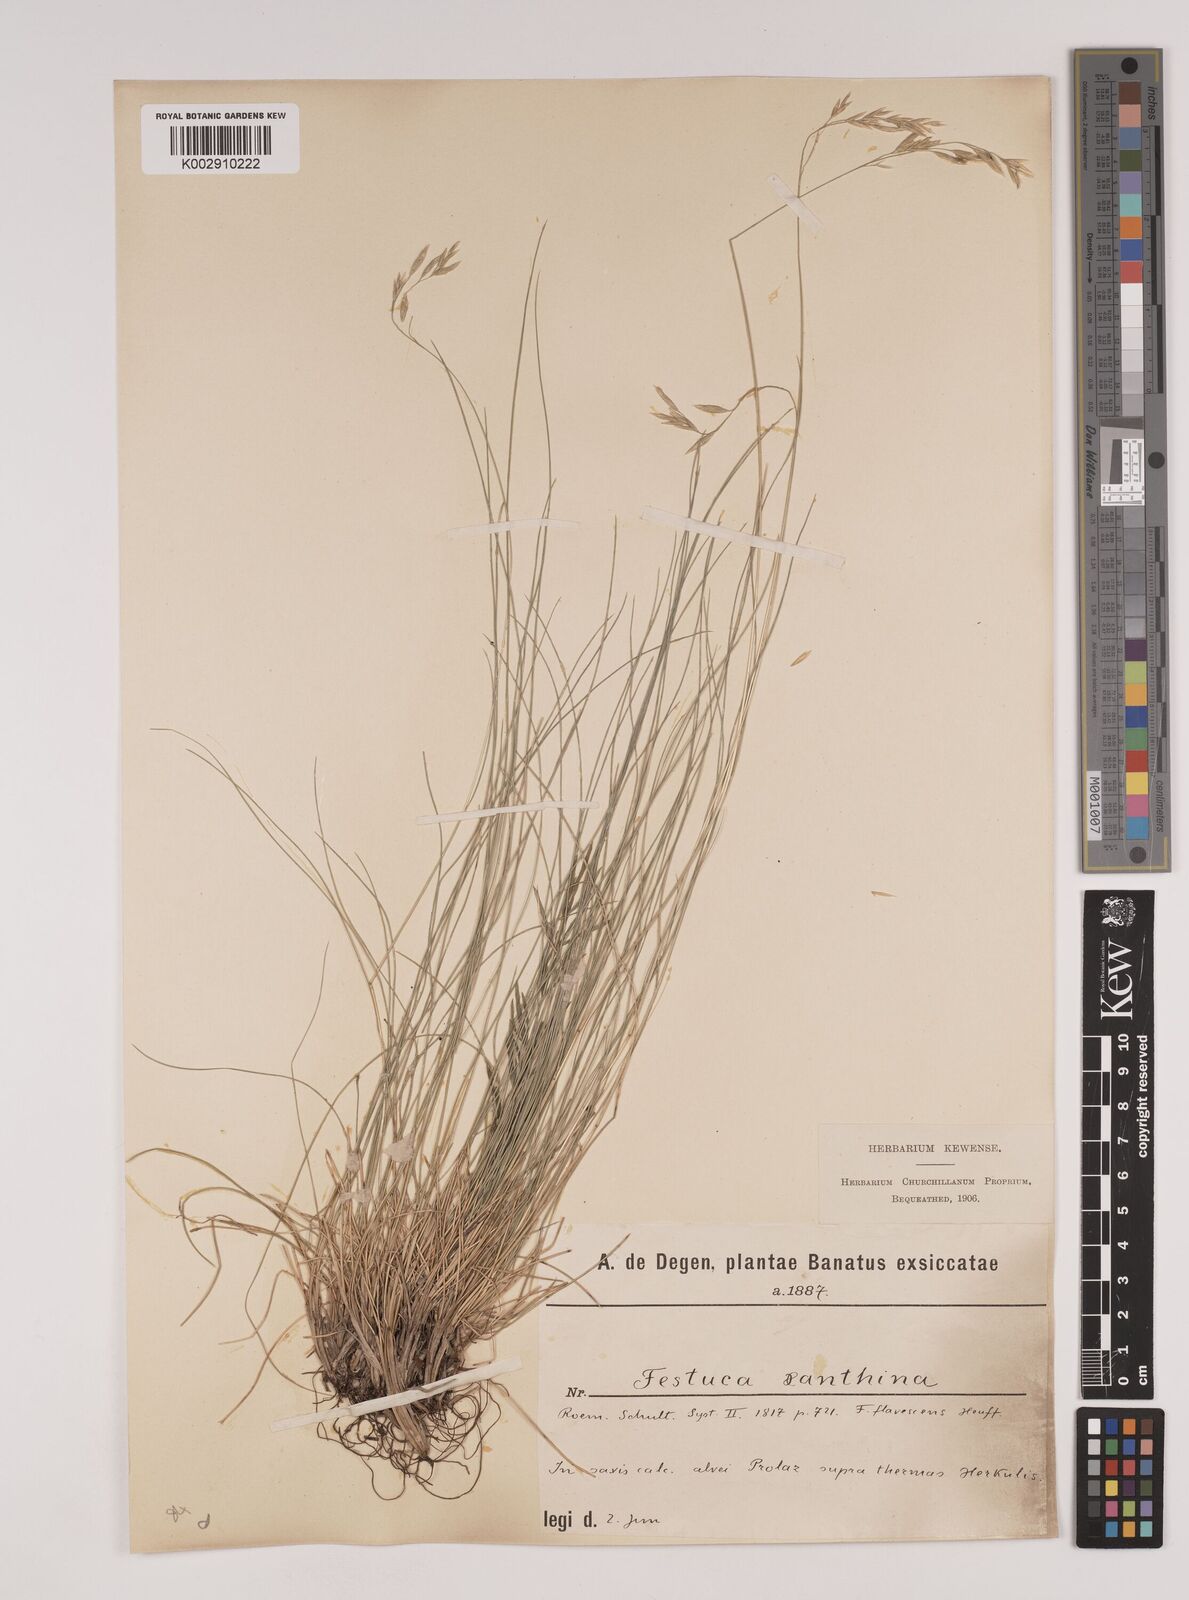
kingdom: Plantae
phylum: Tracheophyta
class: Liliopsida
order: Poales
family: Poaceae
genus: Festuca
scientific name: Festuca xanthina
